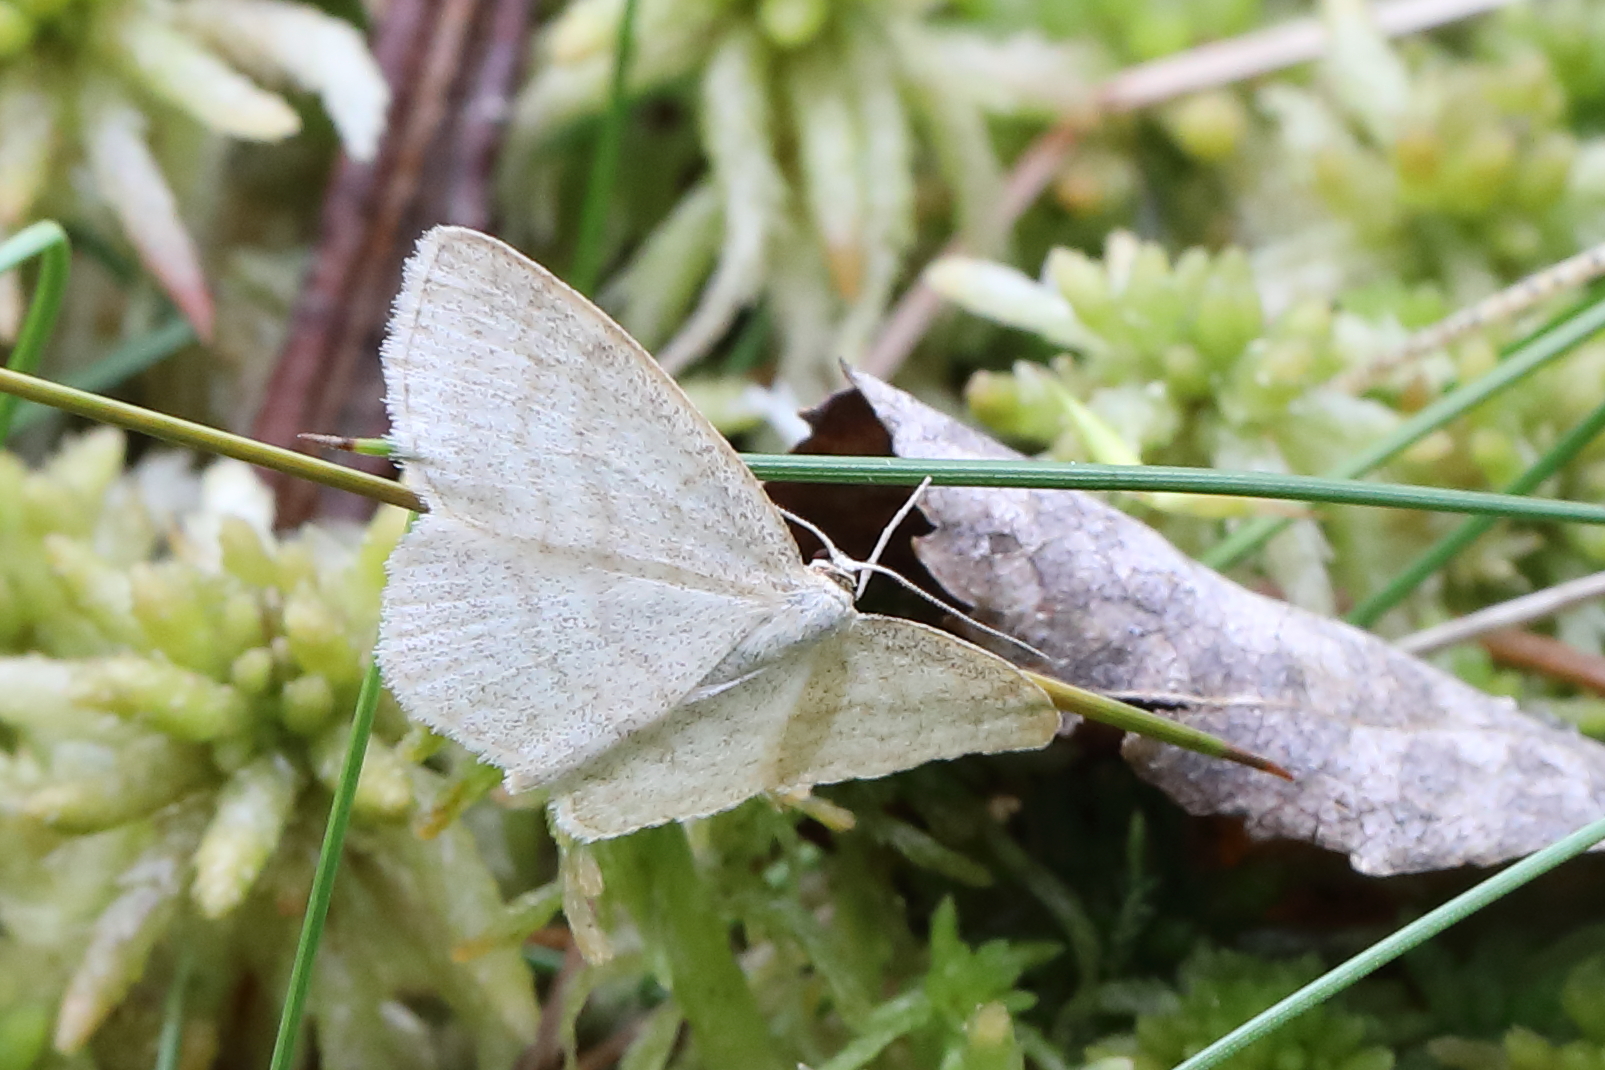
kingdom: Animalia
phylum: Arthropoda
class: Insecta
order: Lepidoptera
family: Geometridae
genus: Scopula
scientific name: Scopula ternata
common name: Smoky wave
